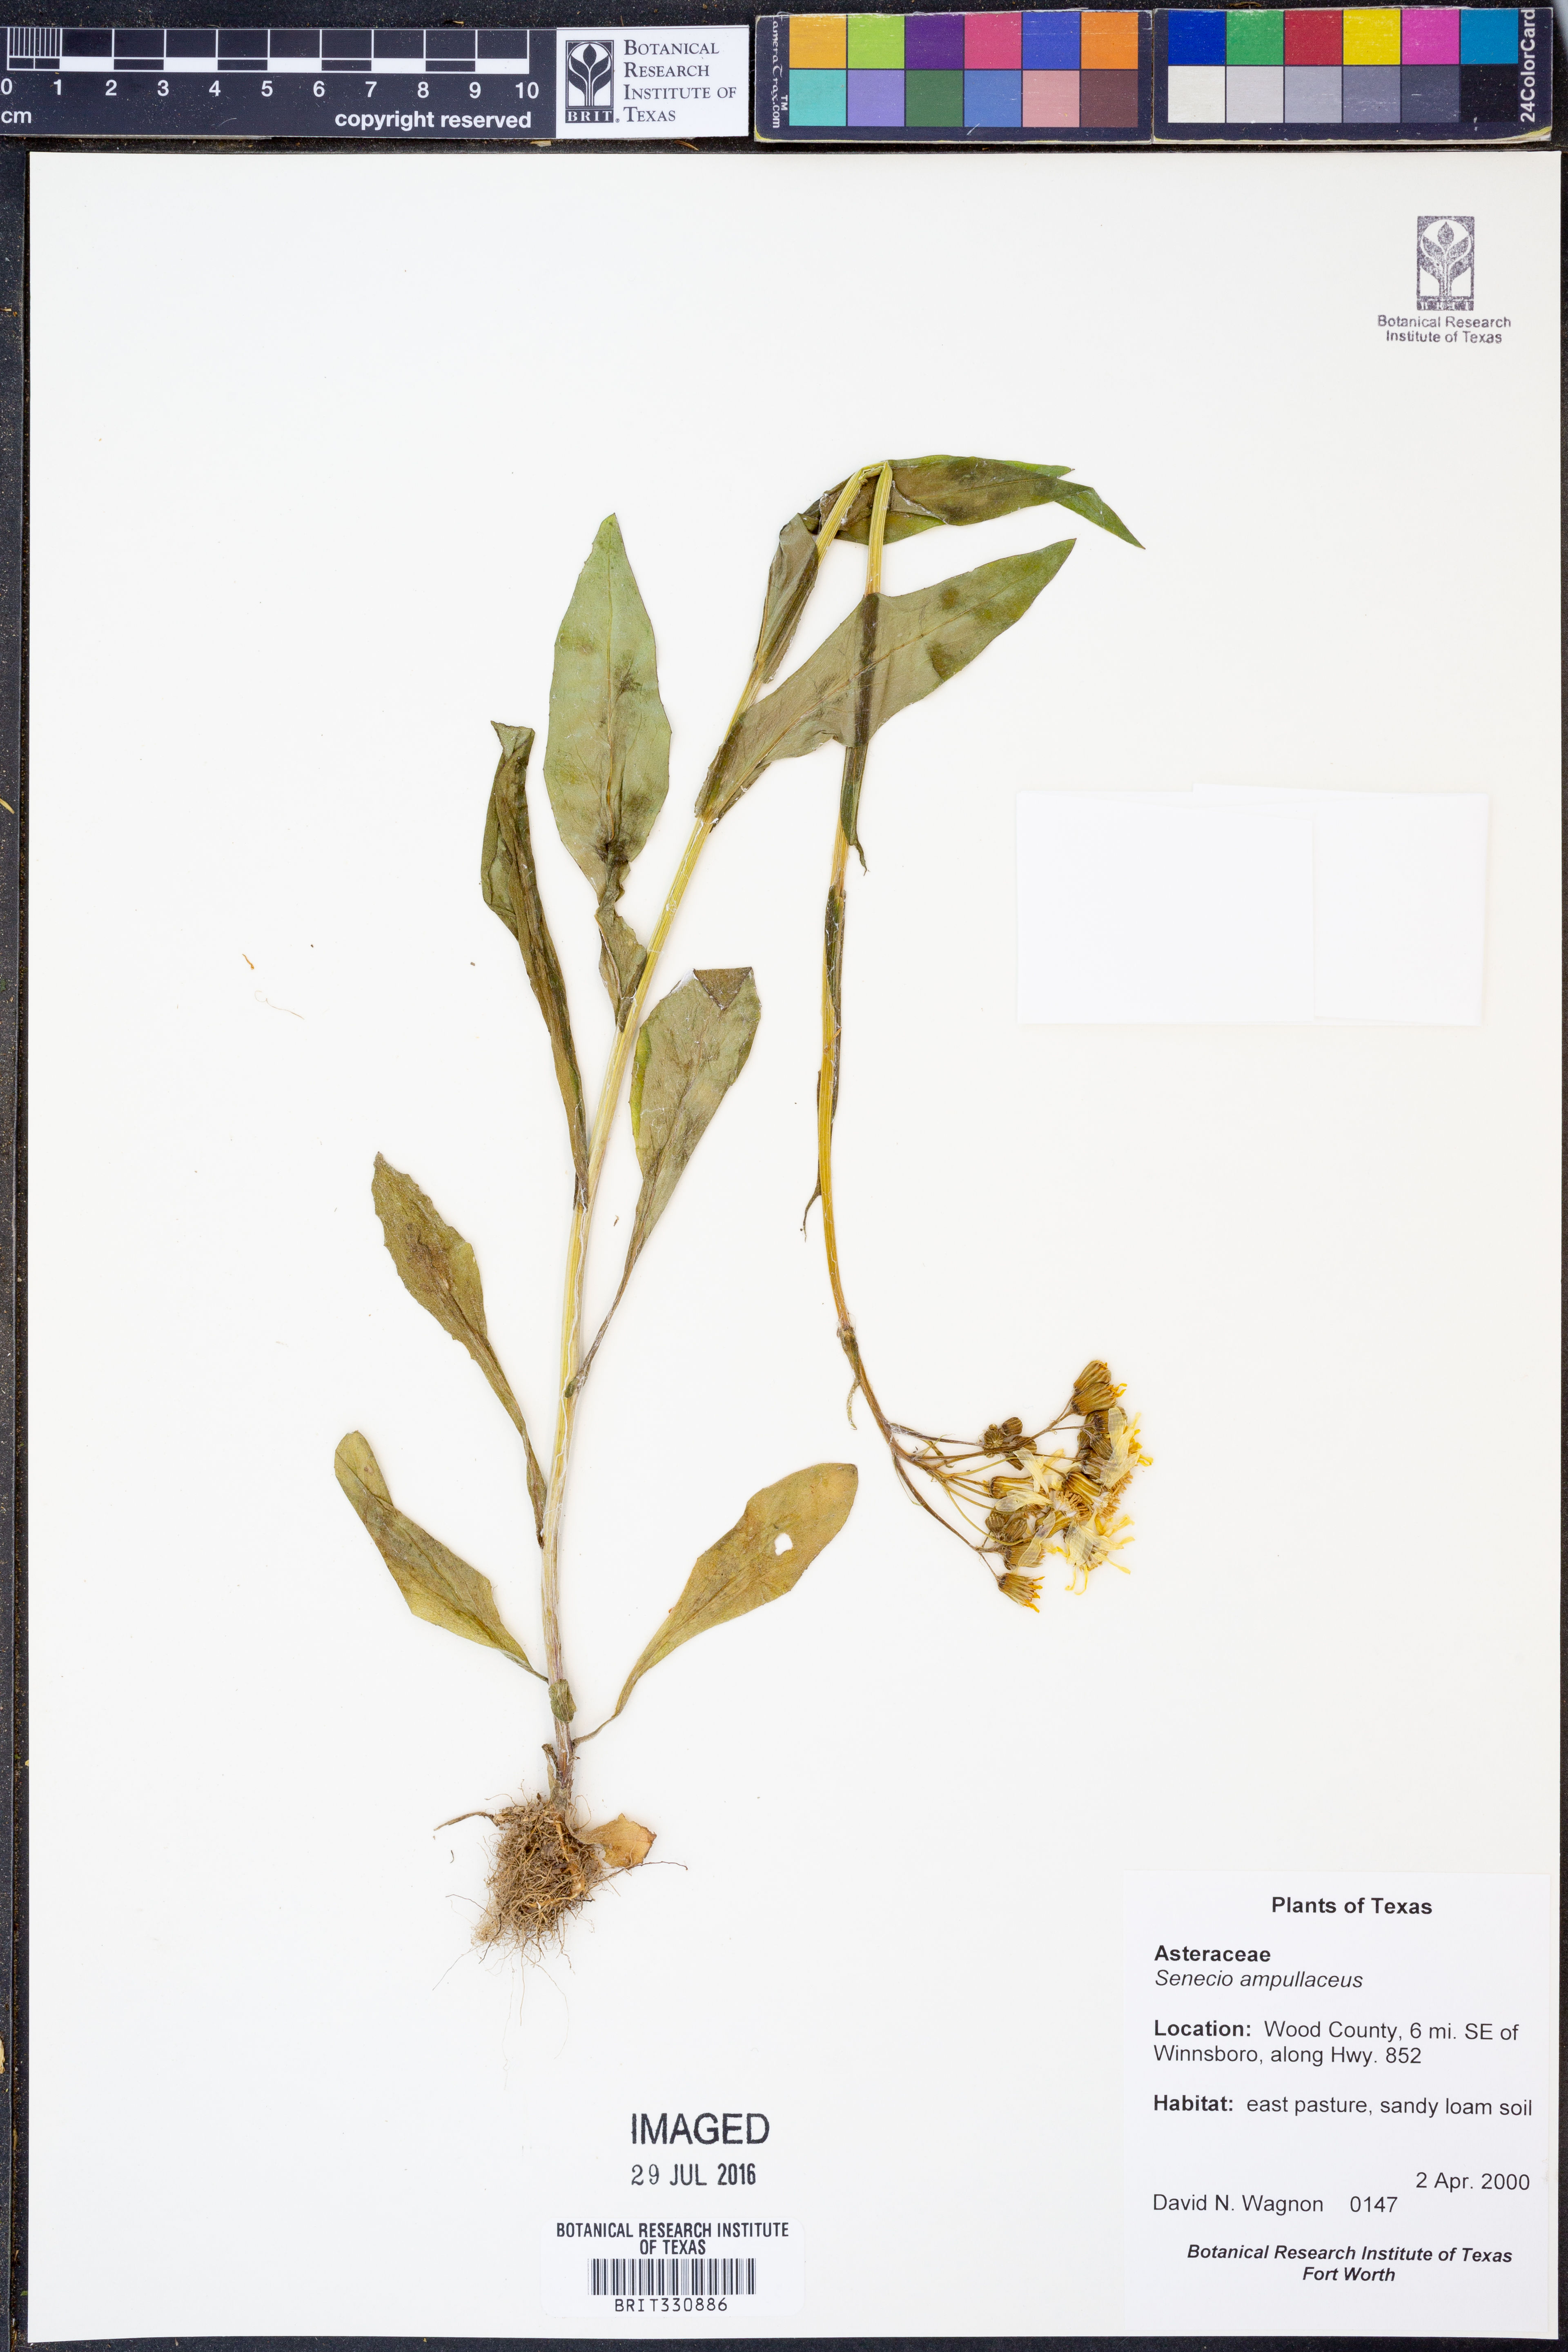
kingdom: Plantae
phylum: Tracheophyta
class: Magnoliopsida
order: Asterales
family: Asteraceae
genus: Senecio
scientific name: Senecio ampullaceus
